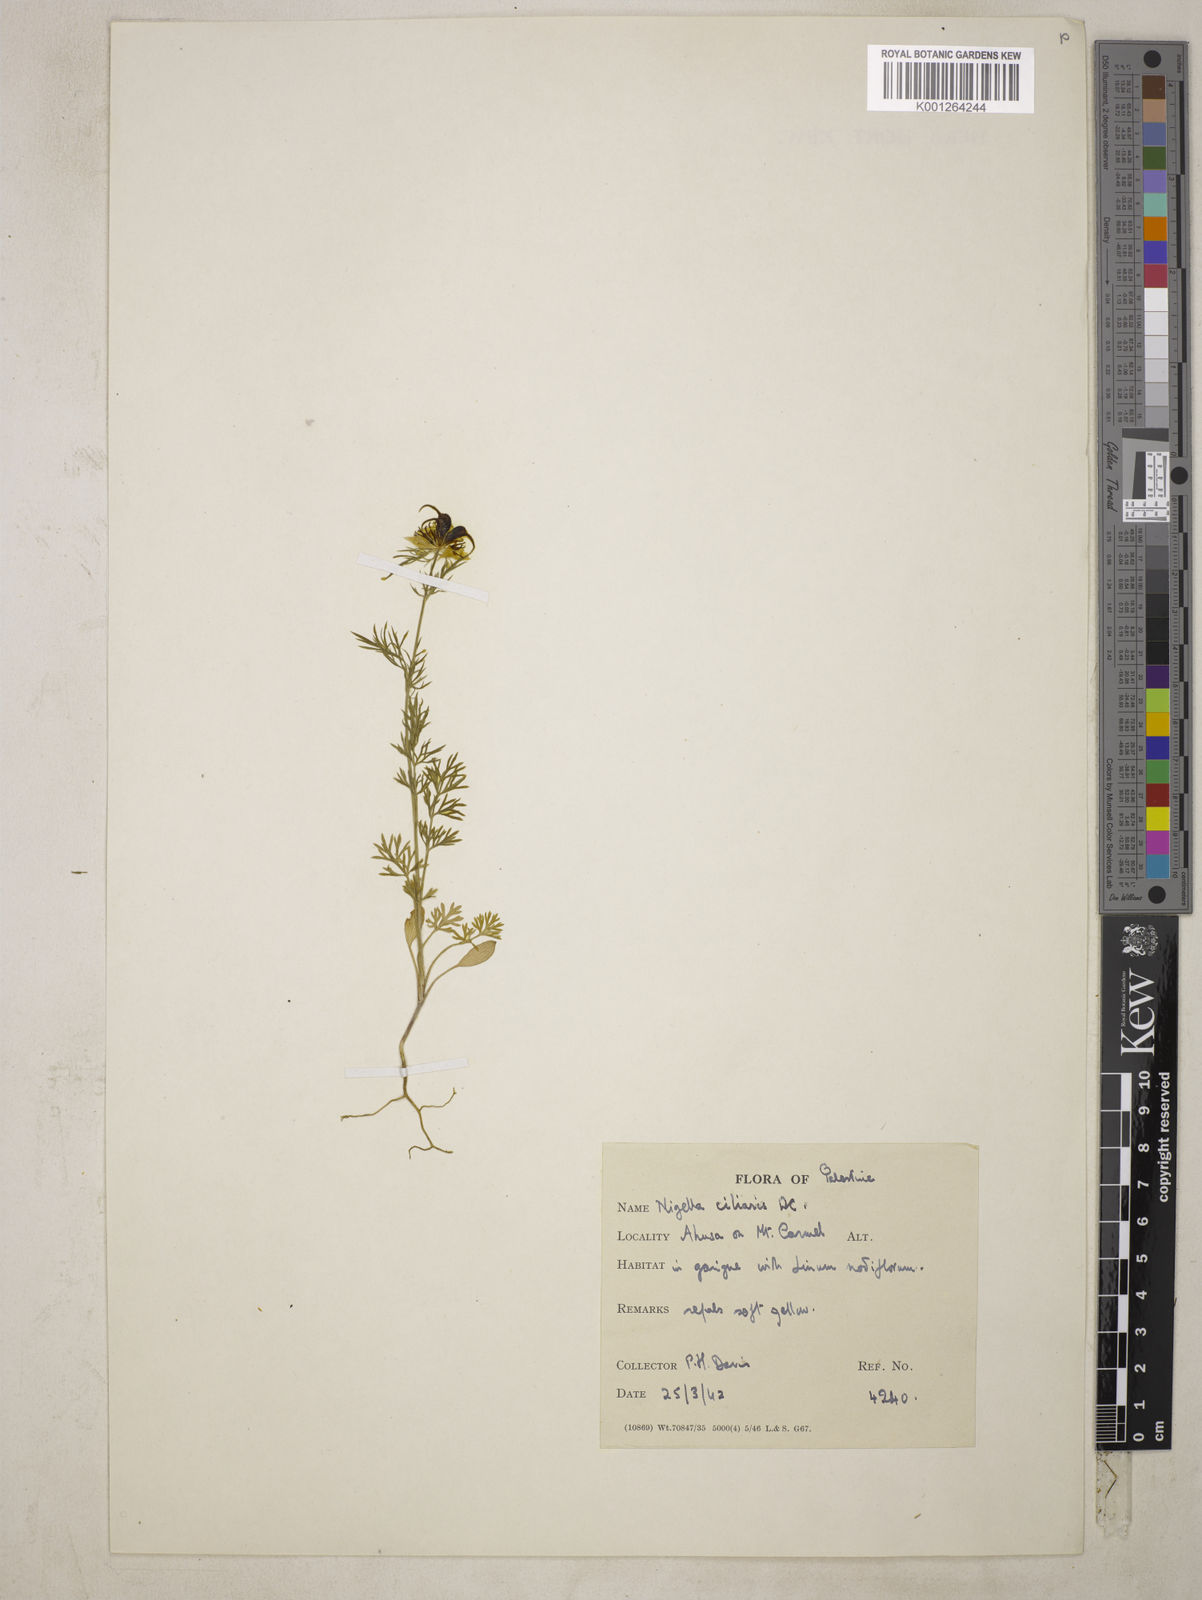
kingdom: Plantae
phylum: Tracheophyta
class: Magnoliopsida
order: Ranunculales
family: Ranunculaceae
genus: Nigella
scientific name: Nigella ciliaris
